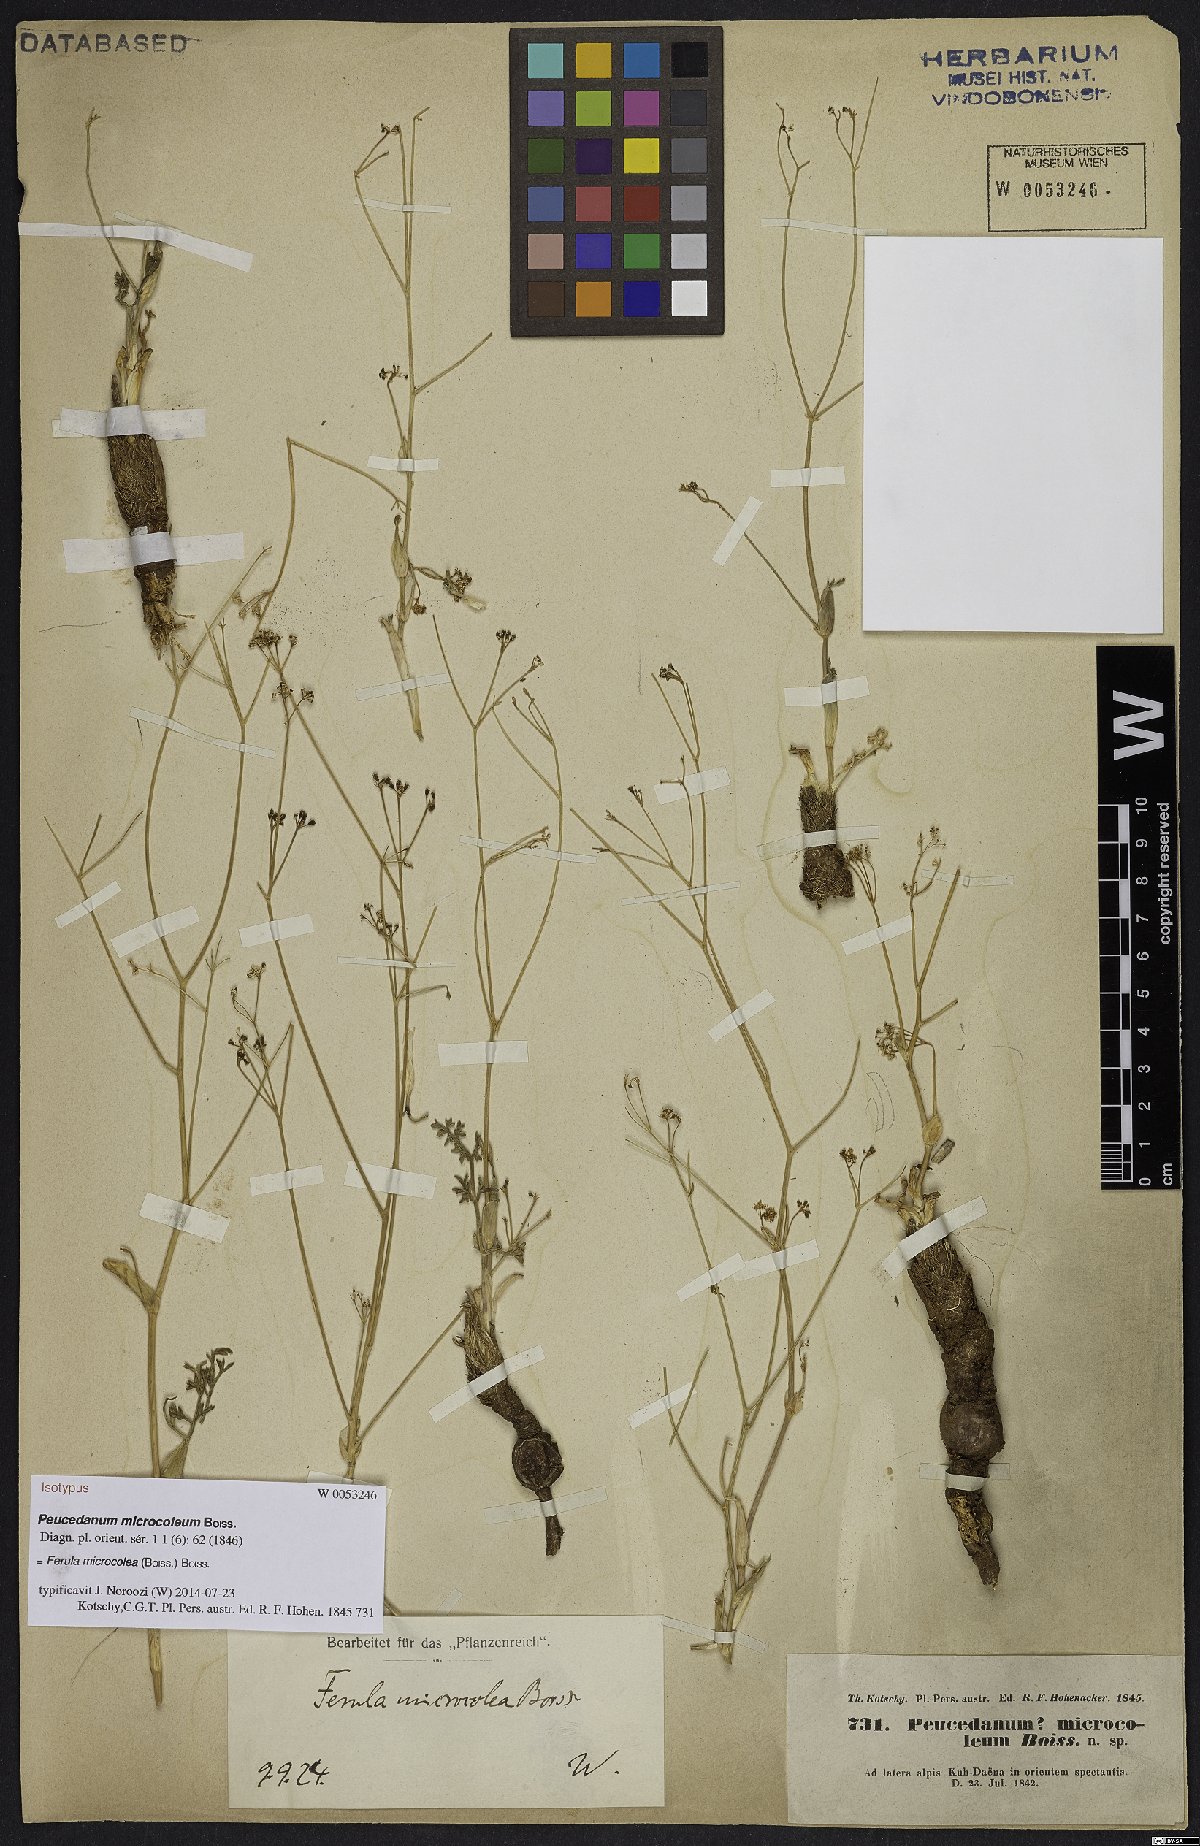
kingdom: Plantae
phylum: Tracheophyta
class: Magnoliopsida
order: Apiales
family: Apiaceae
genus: Ferula
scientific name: Ferula microcolea
